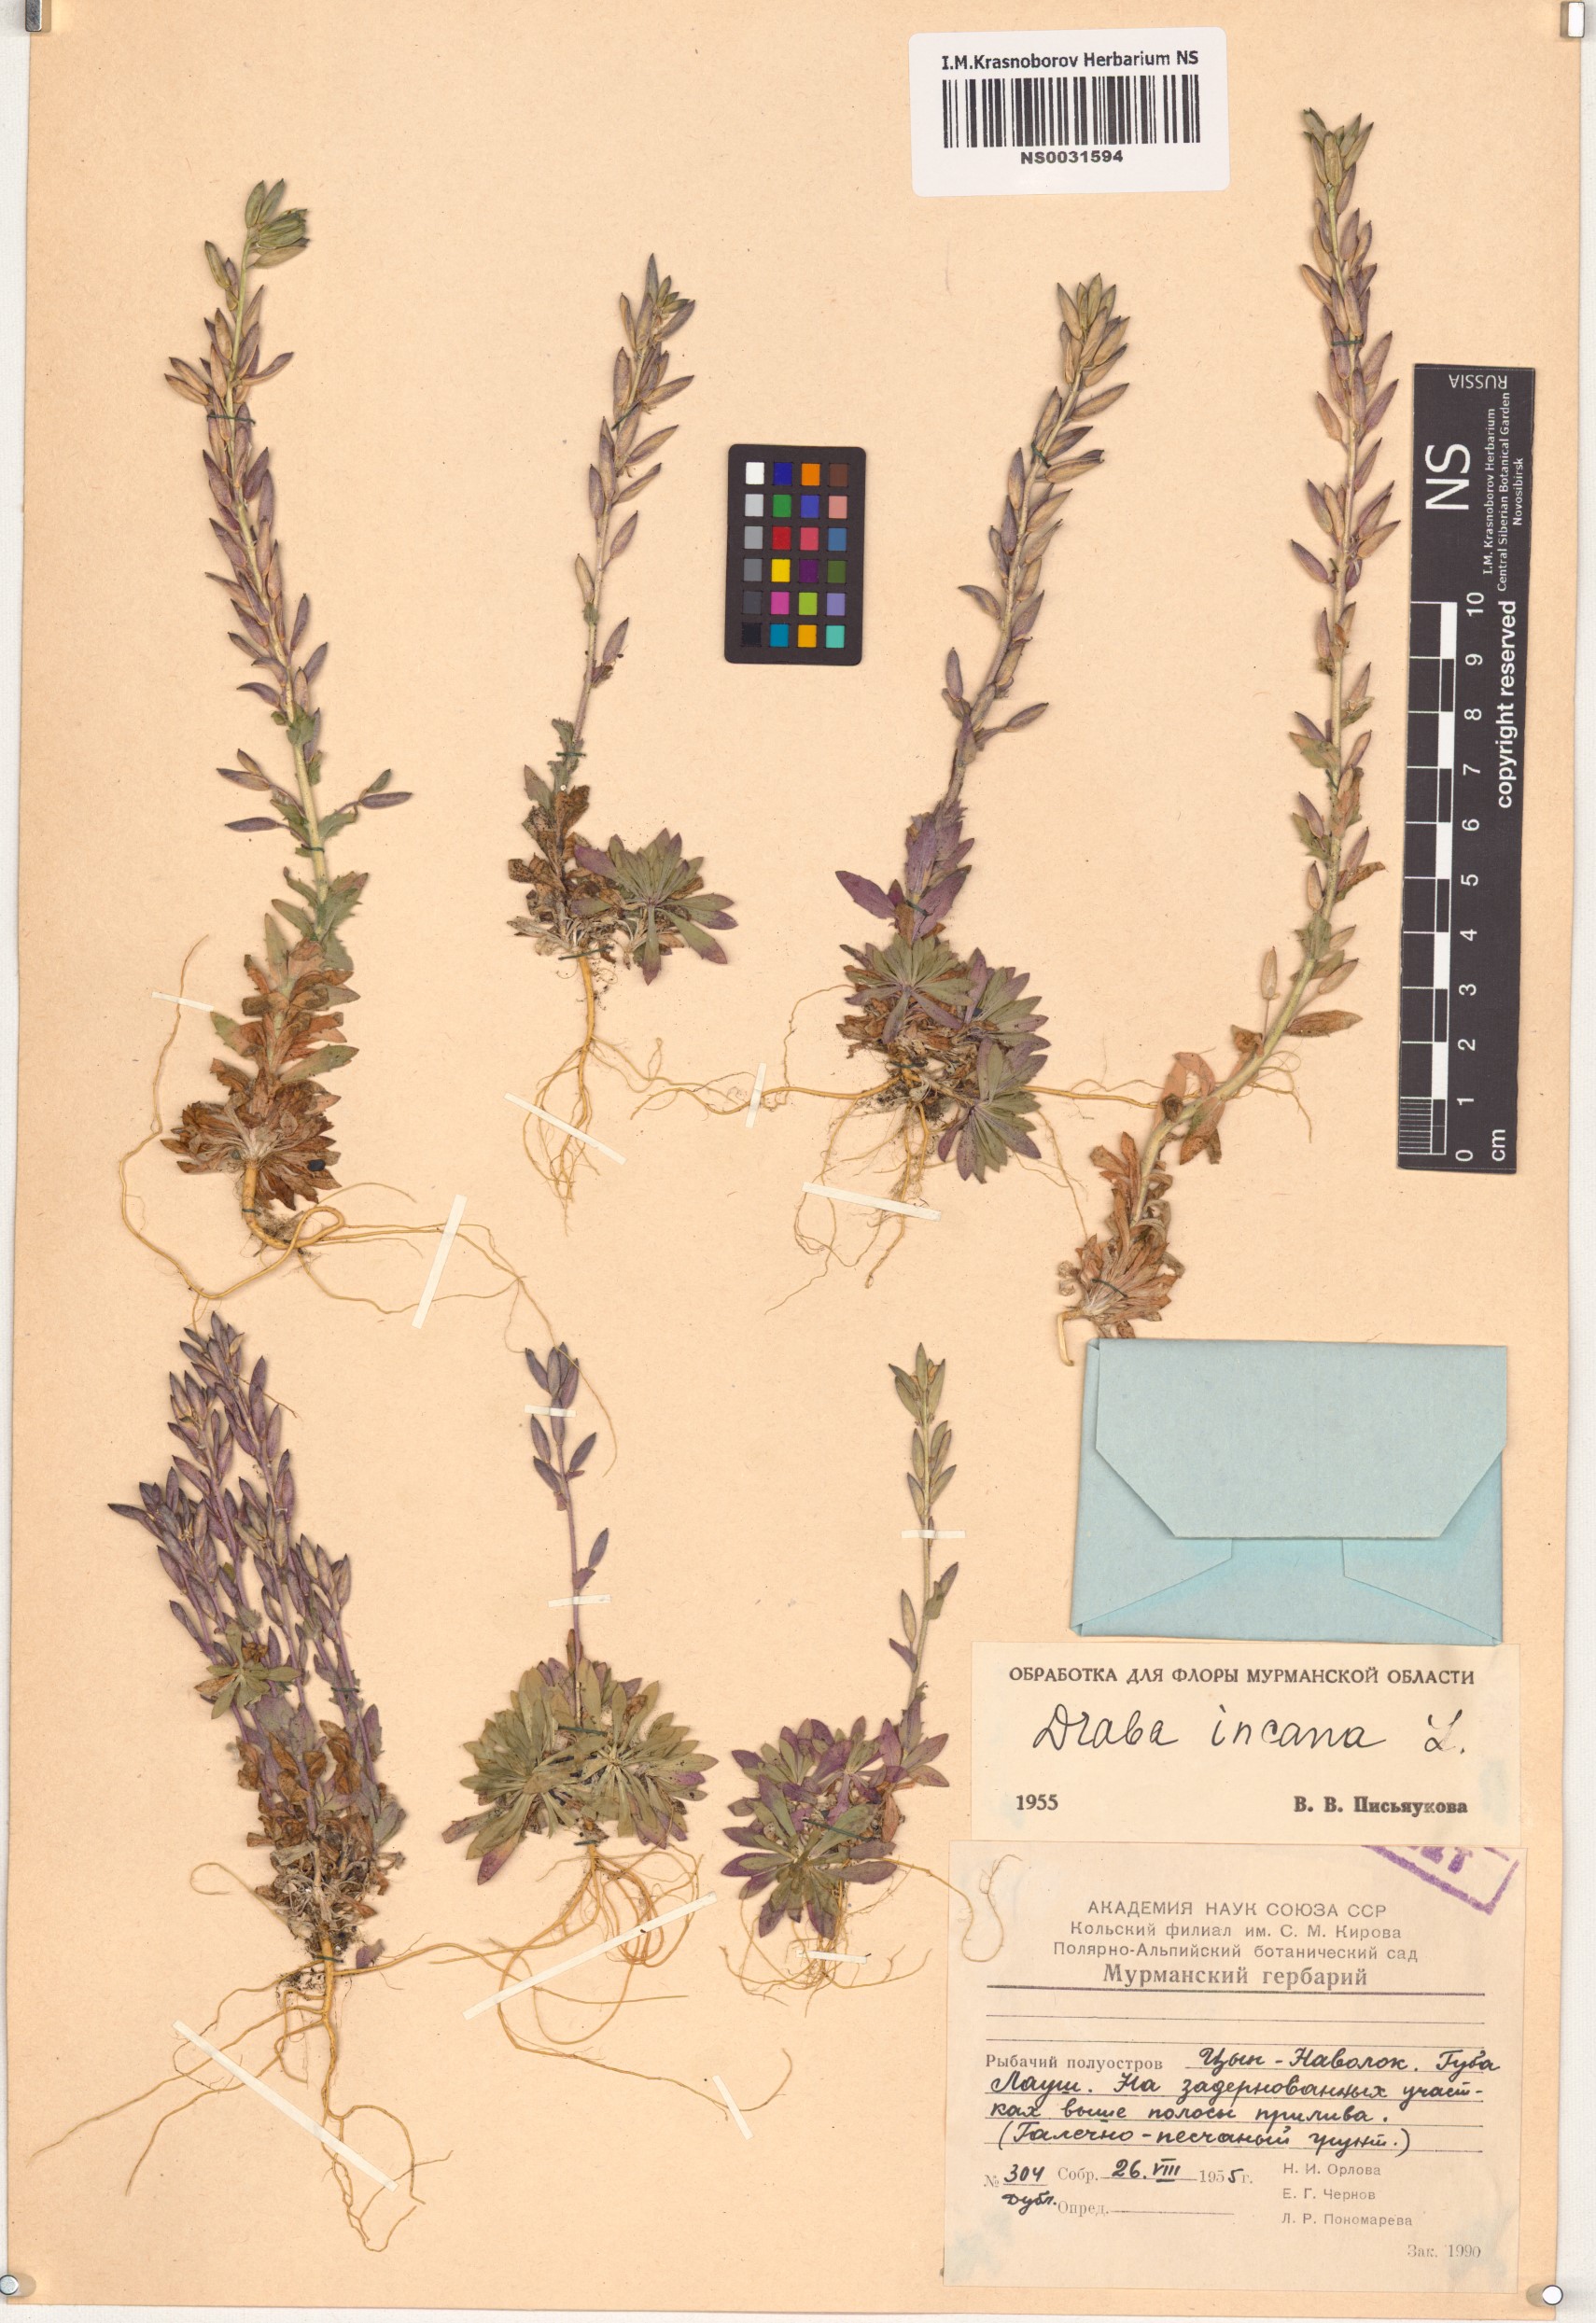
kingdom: Plantae
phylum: Tracheophyta
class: Magnoliopsida
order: Brassicales
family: Brassicaceae
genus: Draba
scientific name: Draba incana
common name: Hoary whitlow-grass
